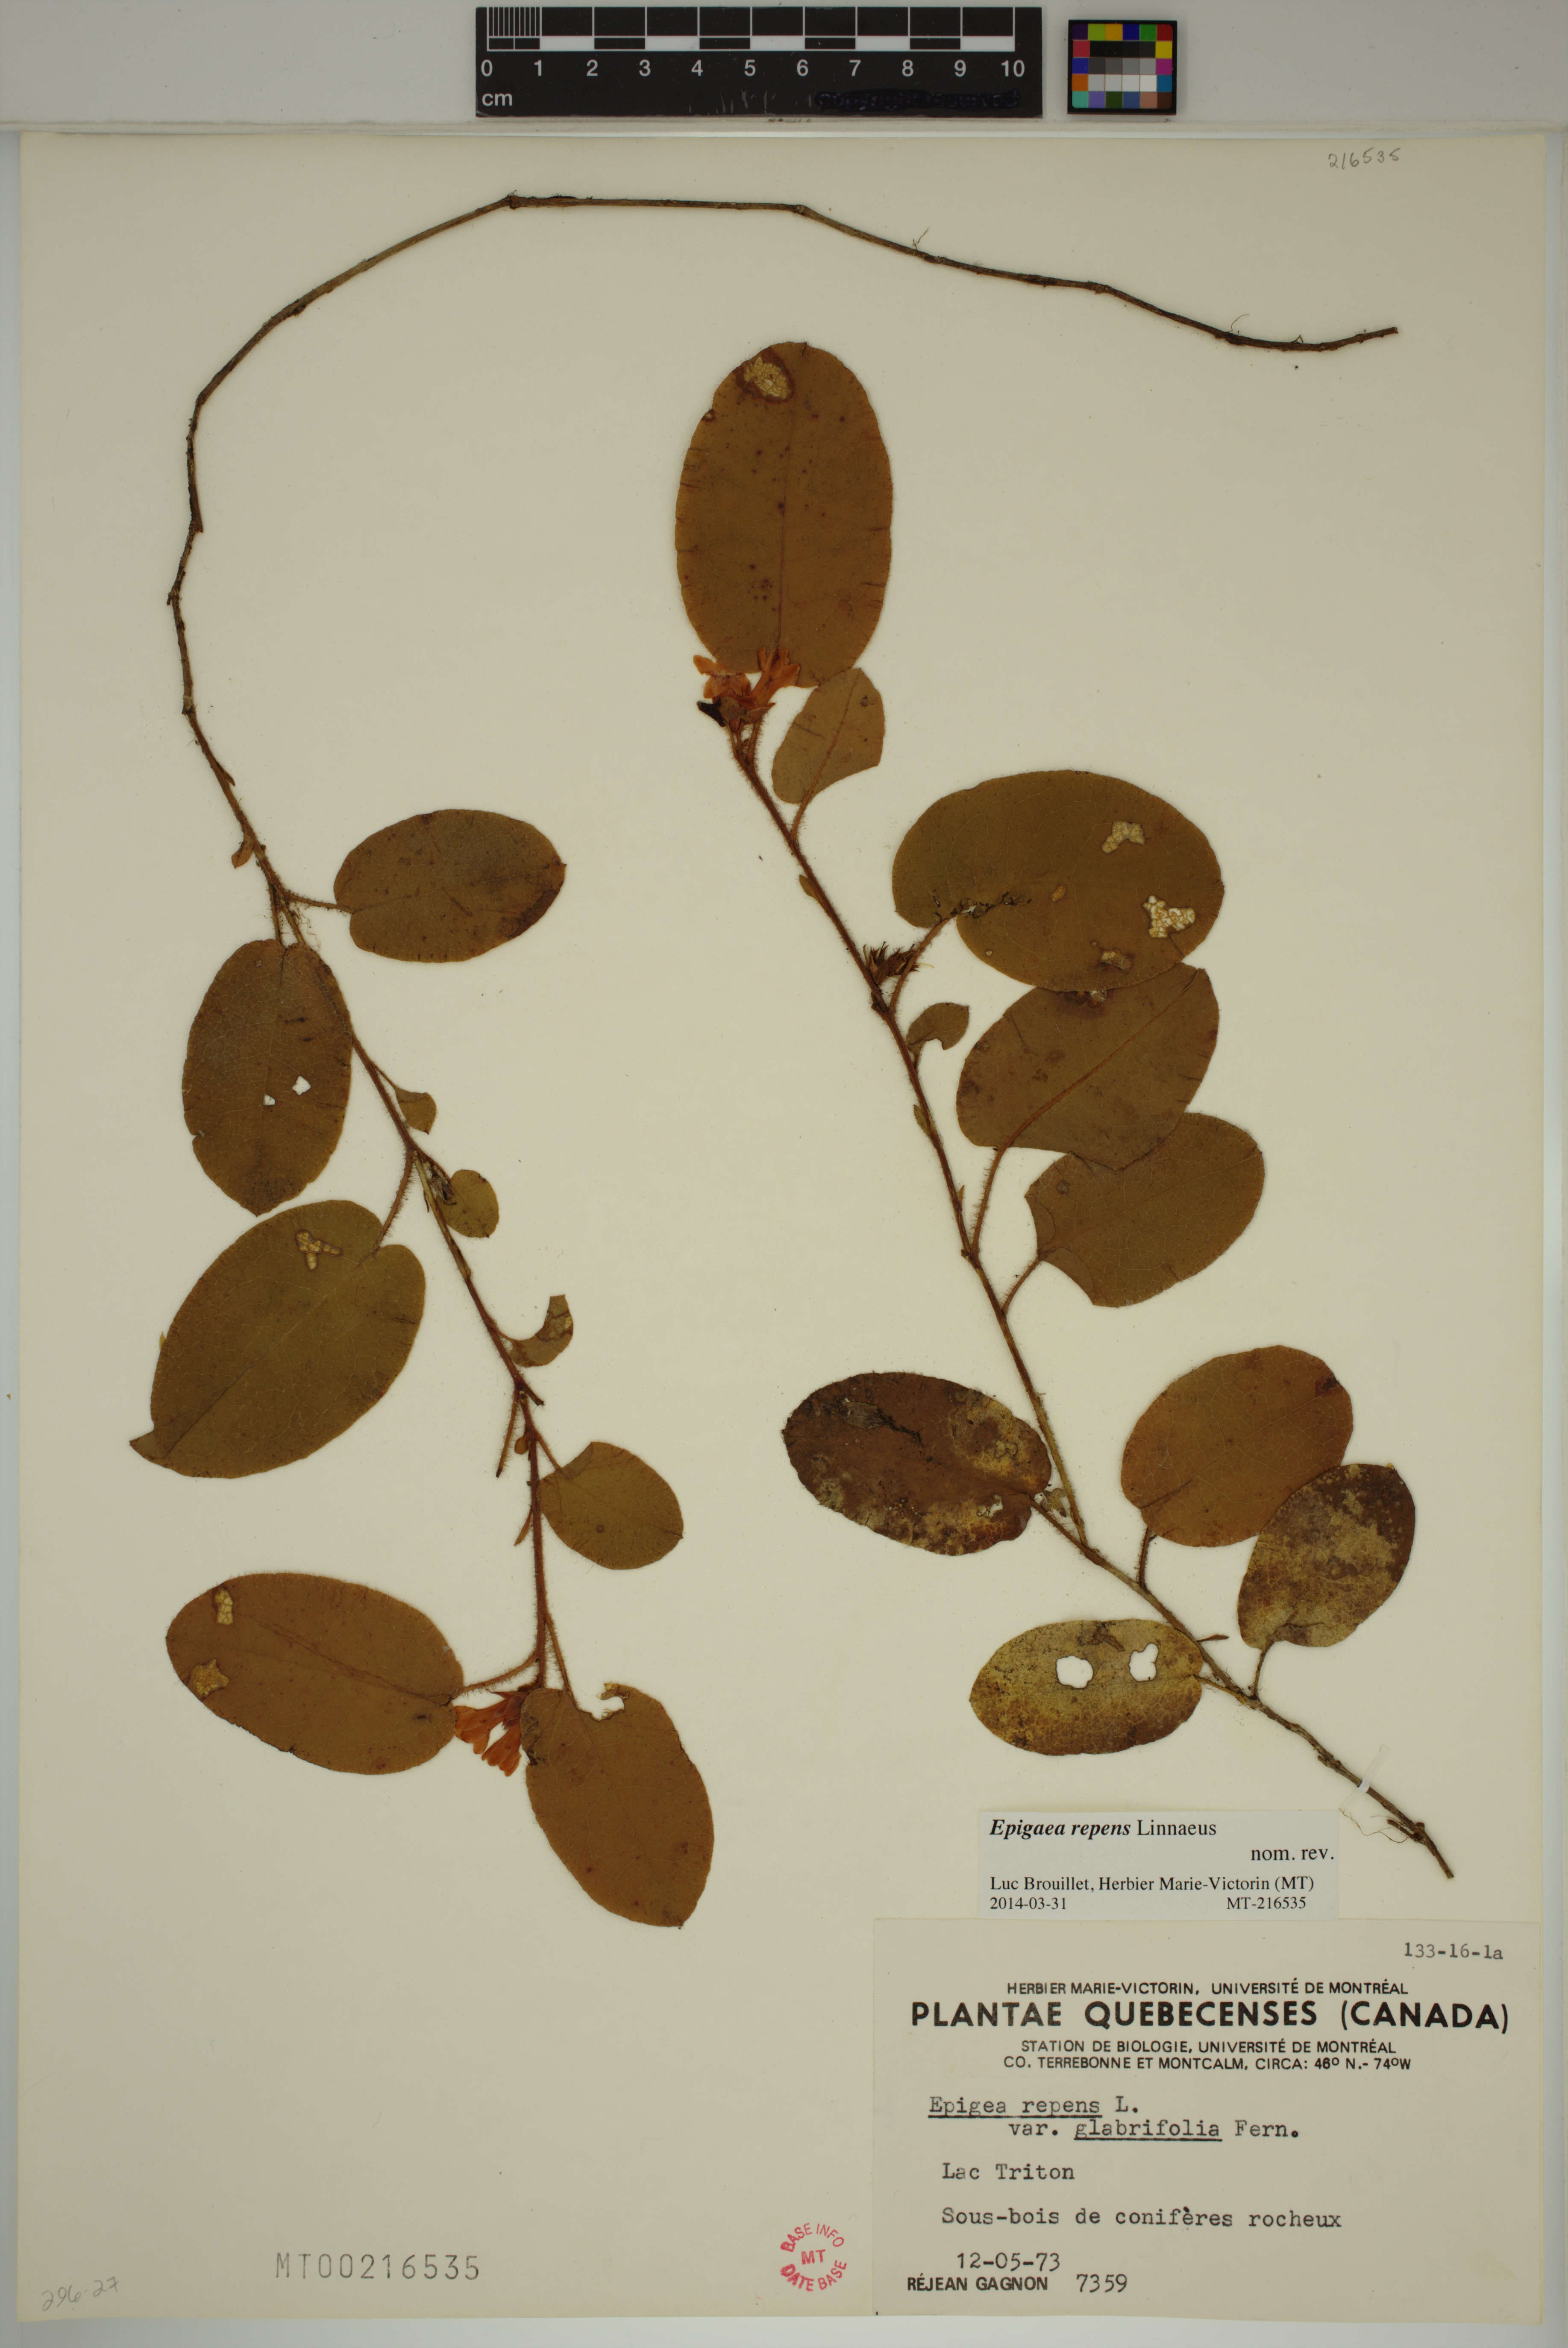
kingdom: Plantae
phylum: Tracheophyta
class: Magnoliopsida
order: Ericales
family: Ericaceae
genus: Epigaea
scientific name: Epigaea repens
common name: Gravelroot
